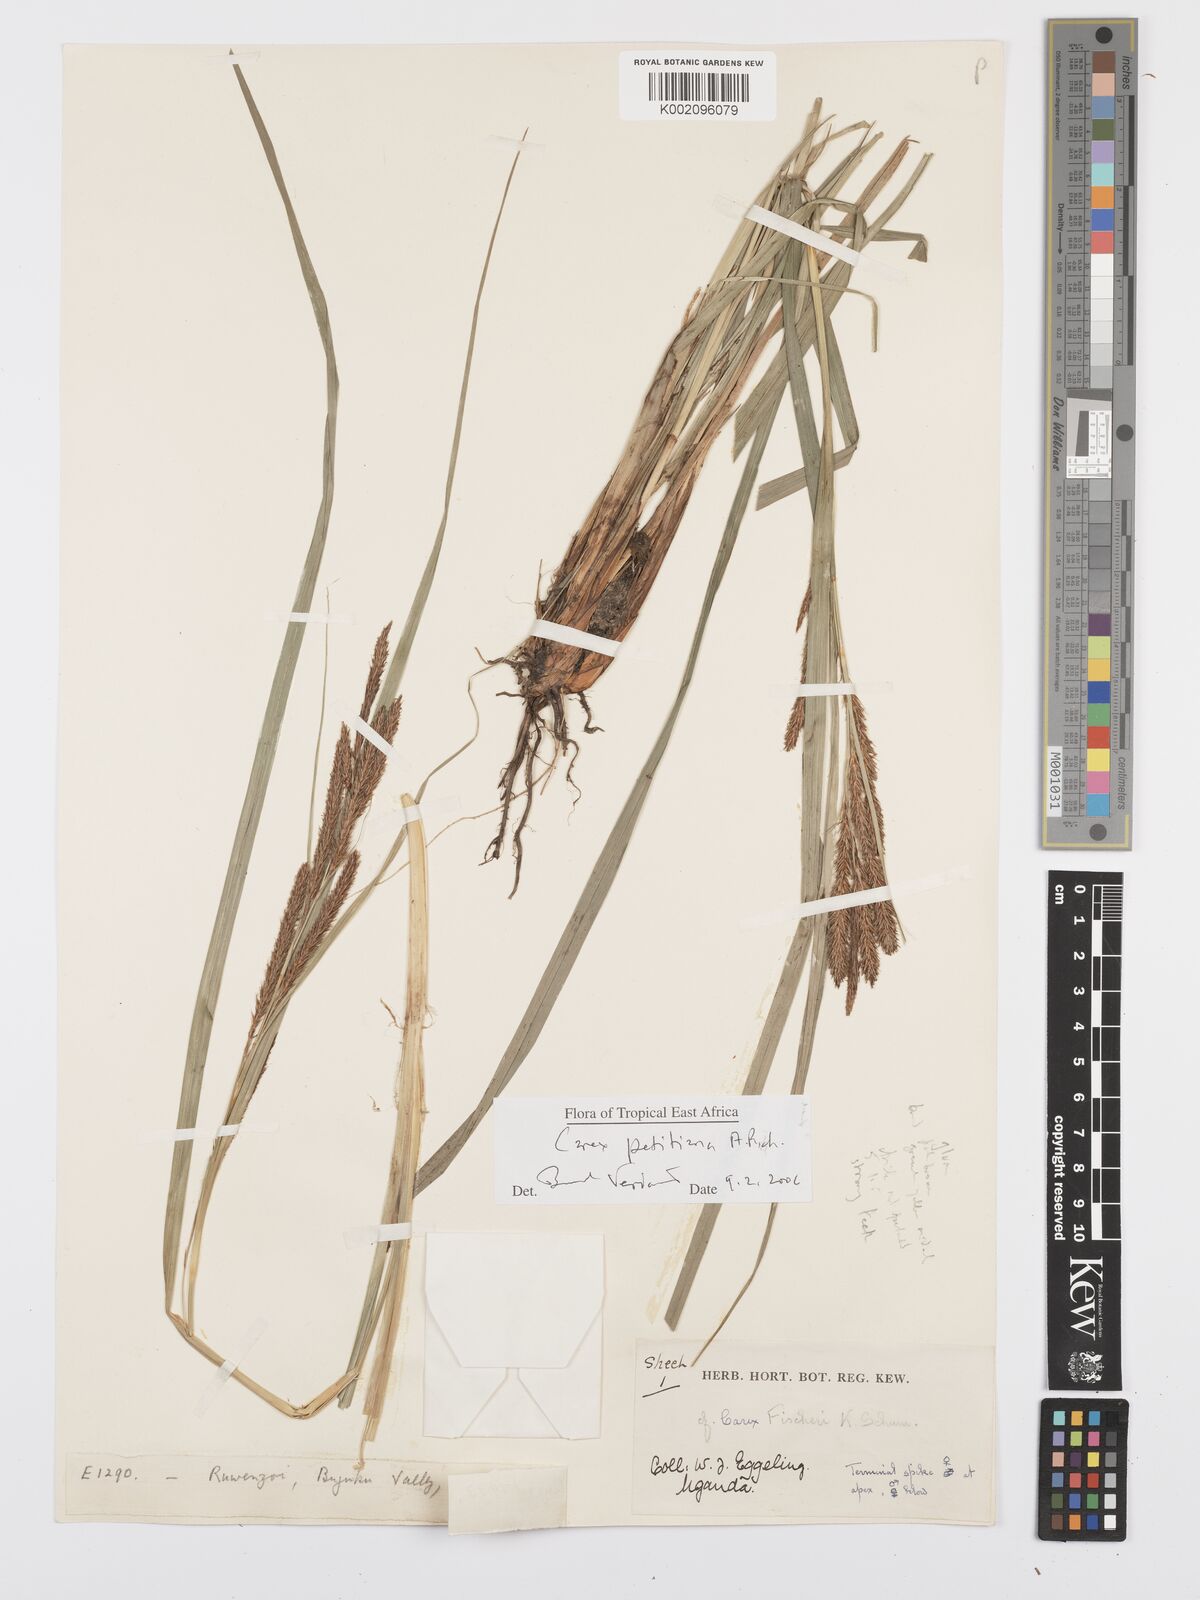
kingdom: Plantae
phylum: Tracheophyta
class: Liliopsida
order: Poales
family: Cyperaceae
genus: Carex
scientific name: Carex fischeri
